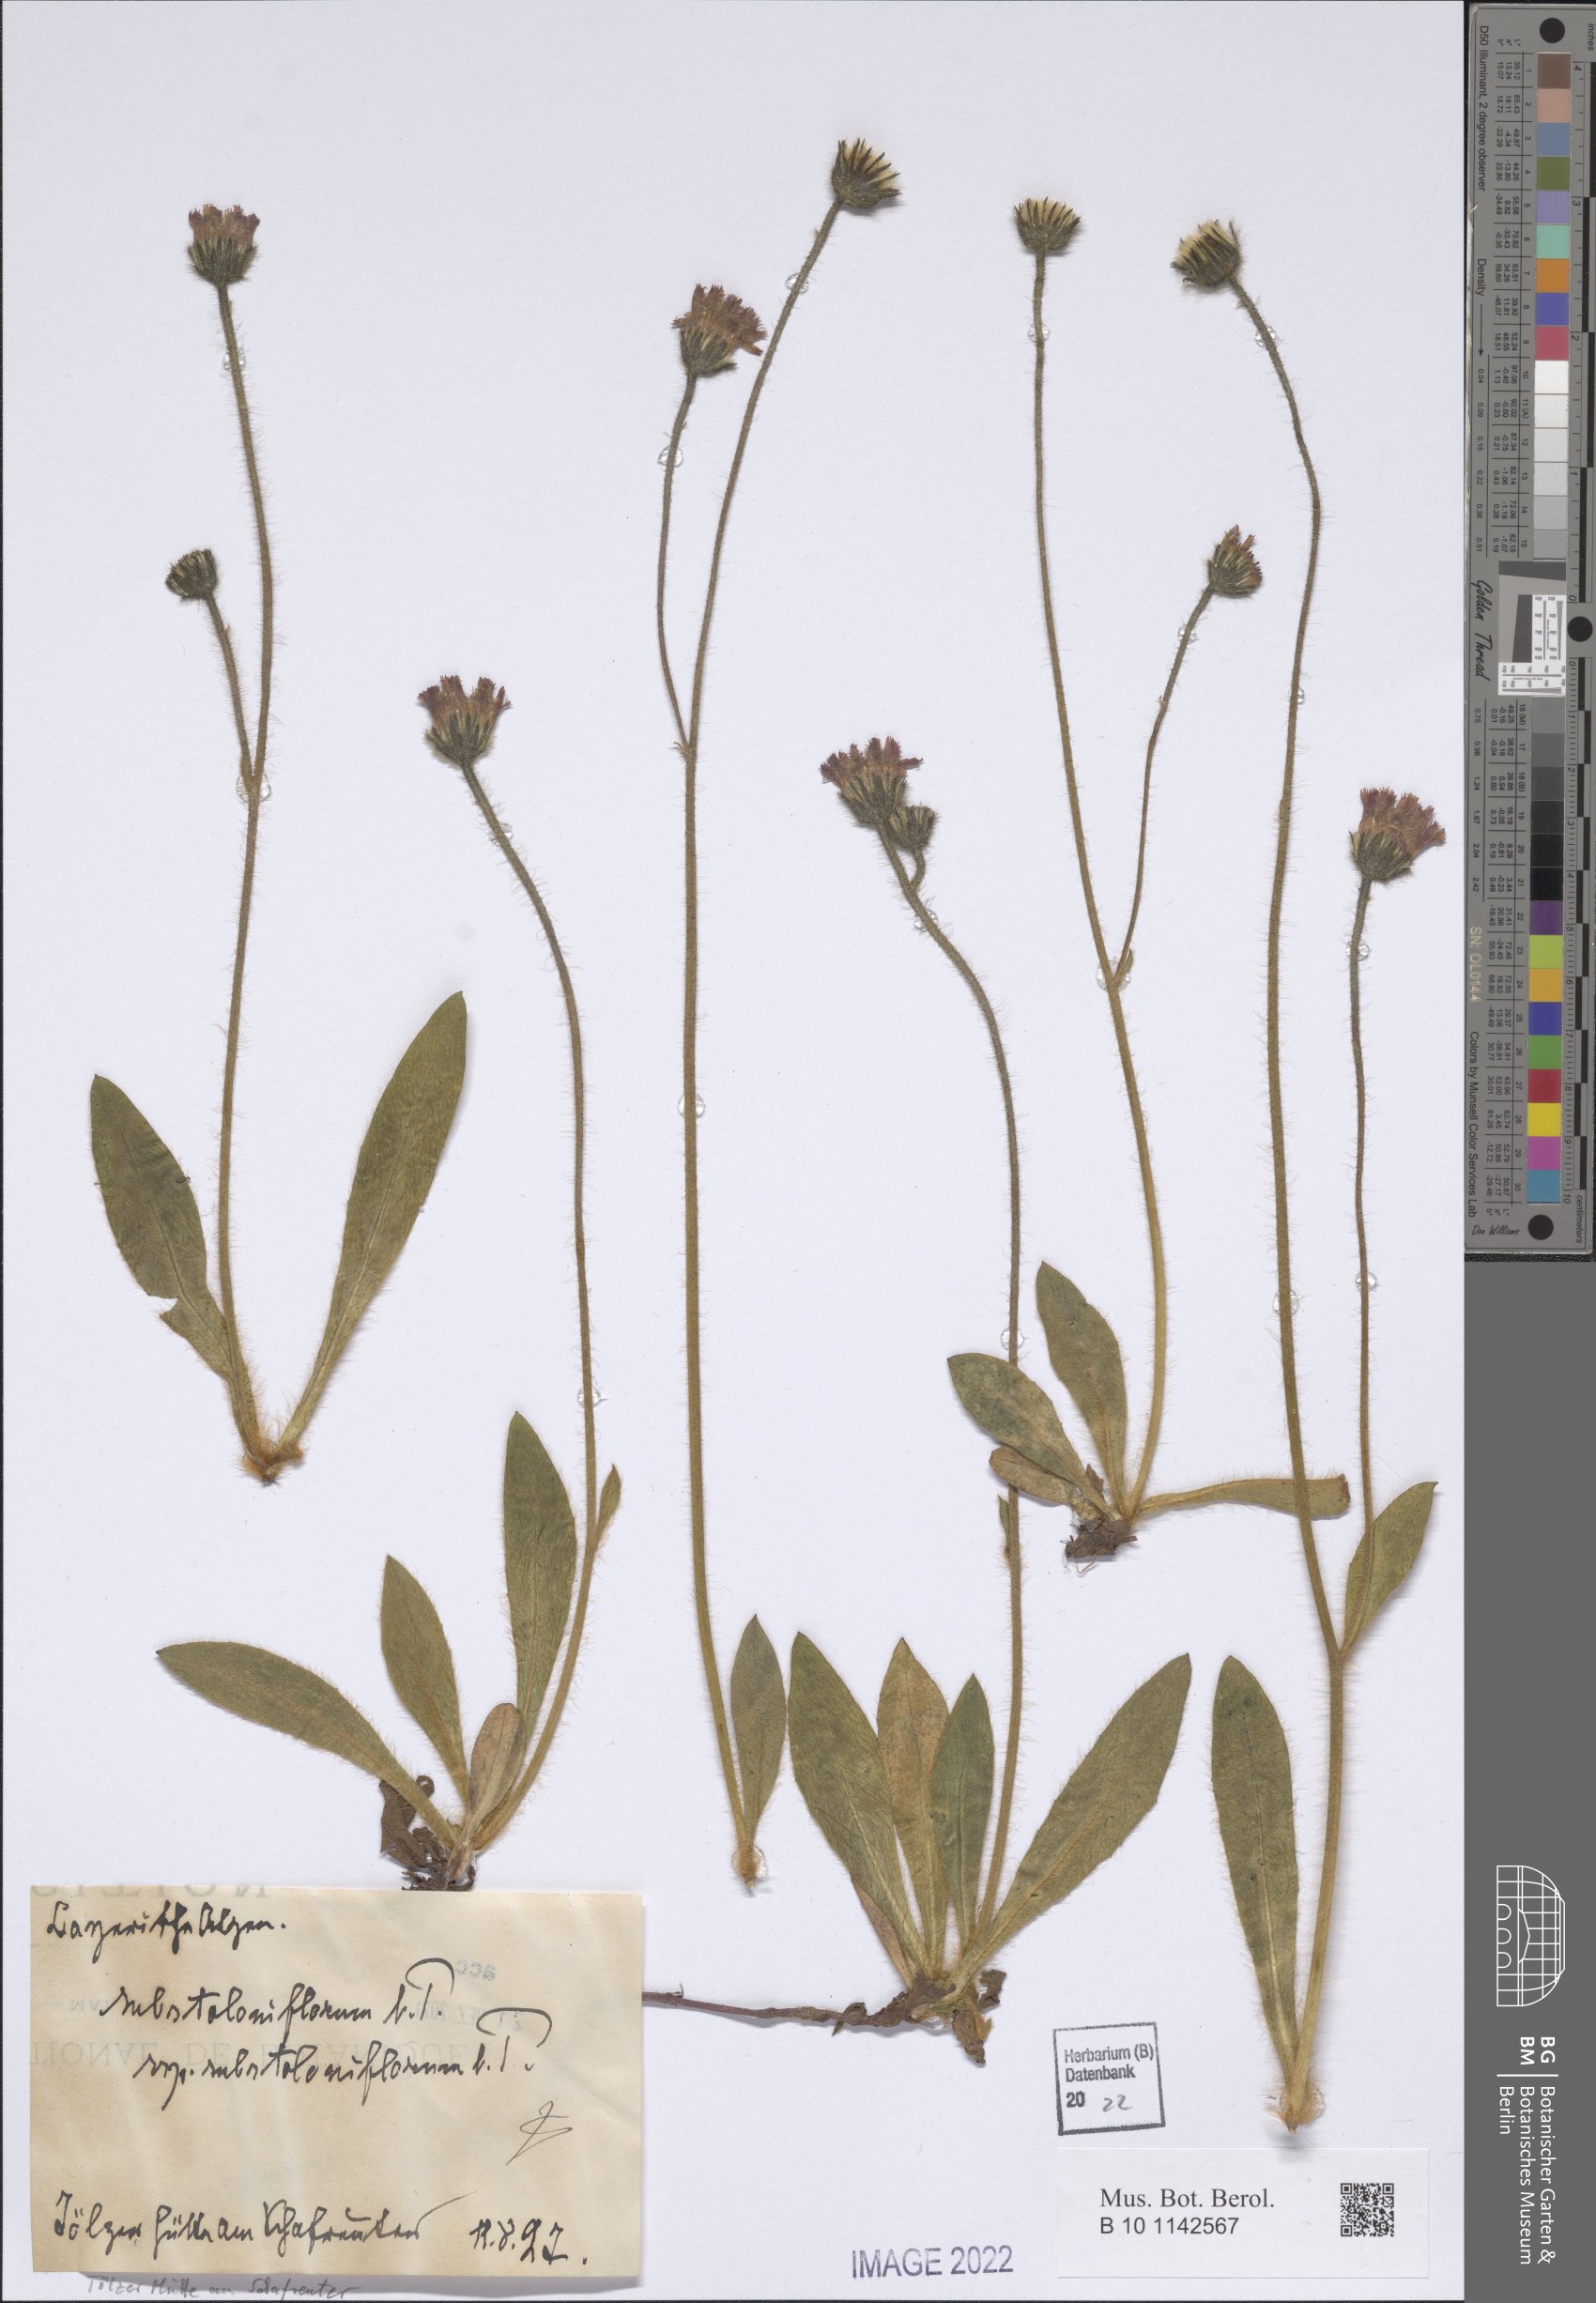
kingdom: Plantae
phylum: Tracheophyta
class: Magnoliopsida
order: Asterales
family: Asteraceae
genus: Pilosella
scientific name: Pilosella rubra
